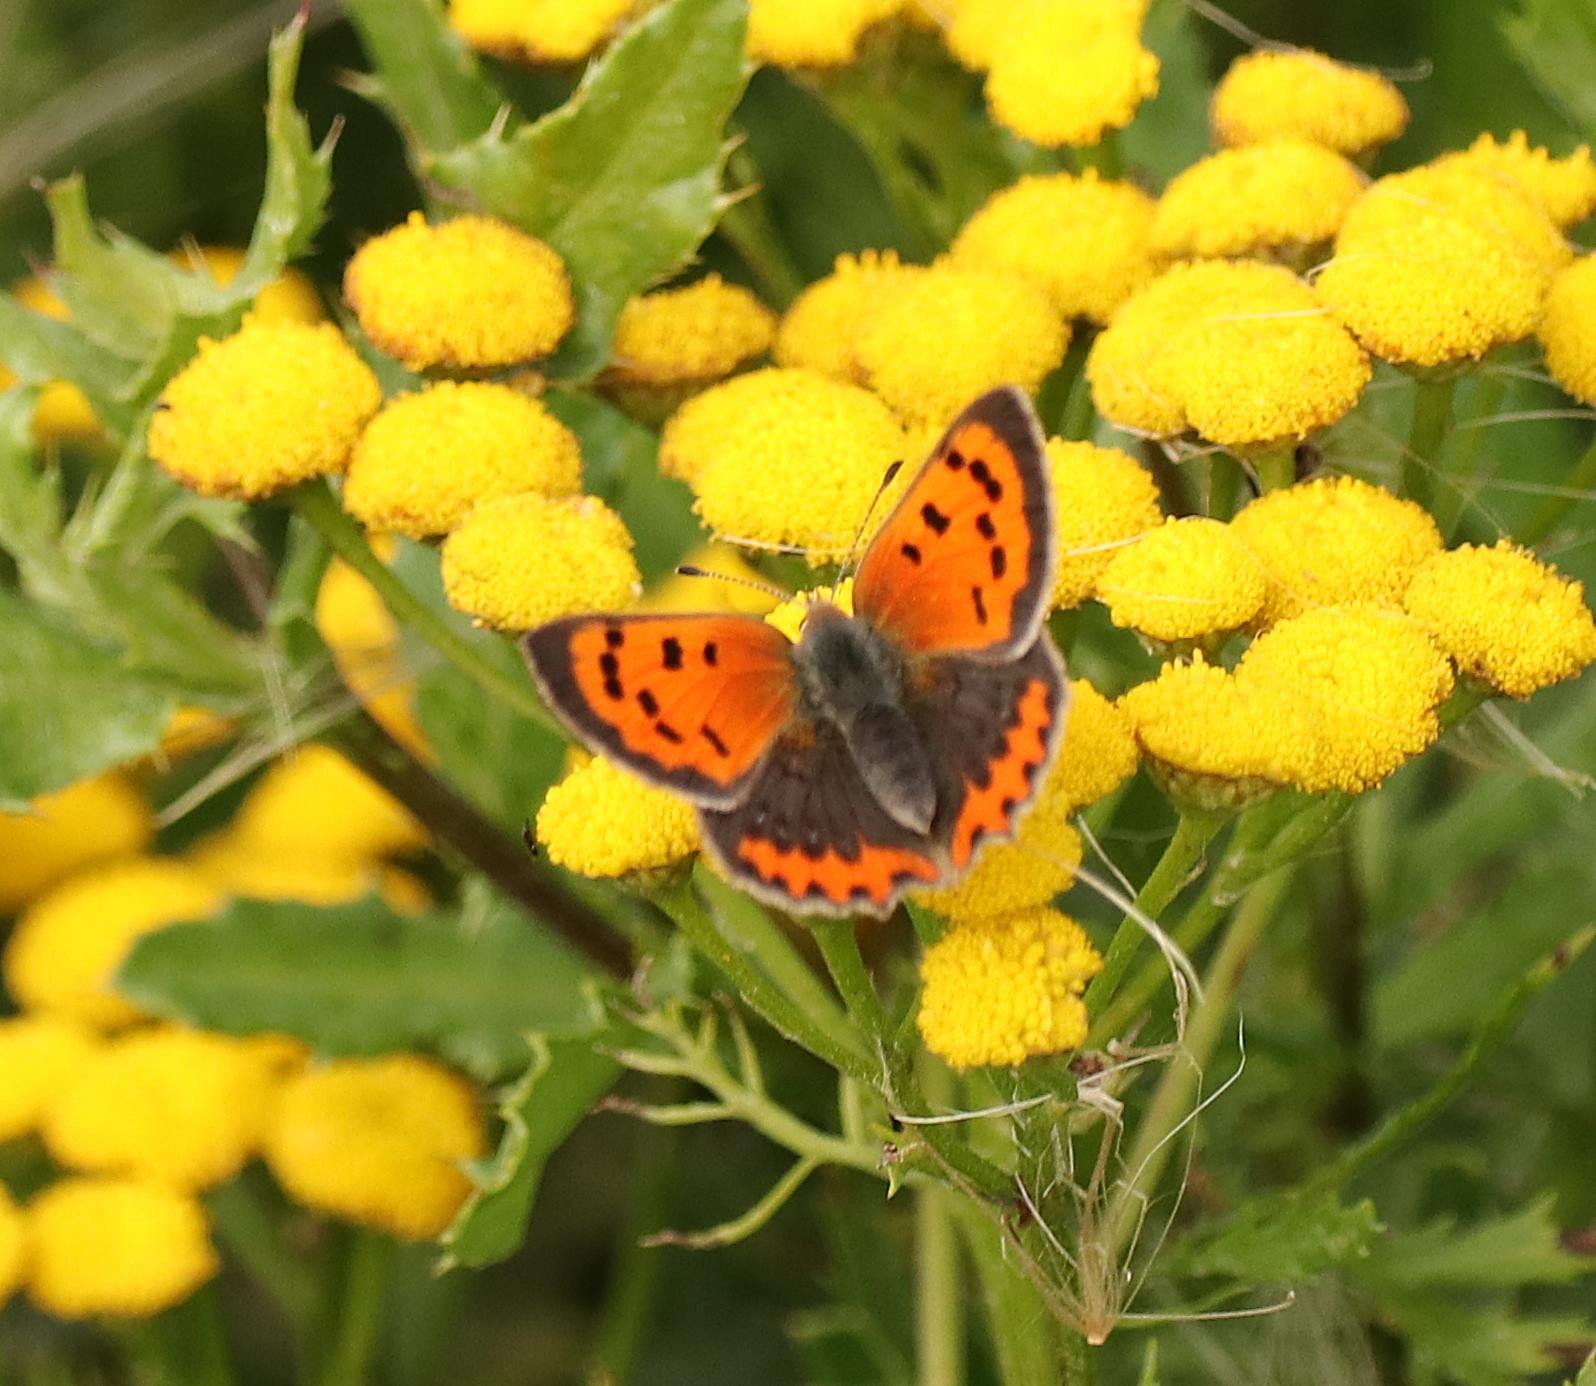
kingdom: Animalia
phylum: Arthropoda
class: Insecta
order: Lepidoptera
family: Lycaenidae
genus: Lycaena
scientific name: Lycaena phlaeas
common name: Lille ildfugl
